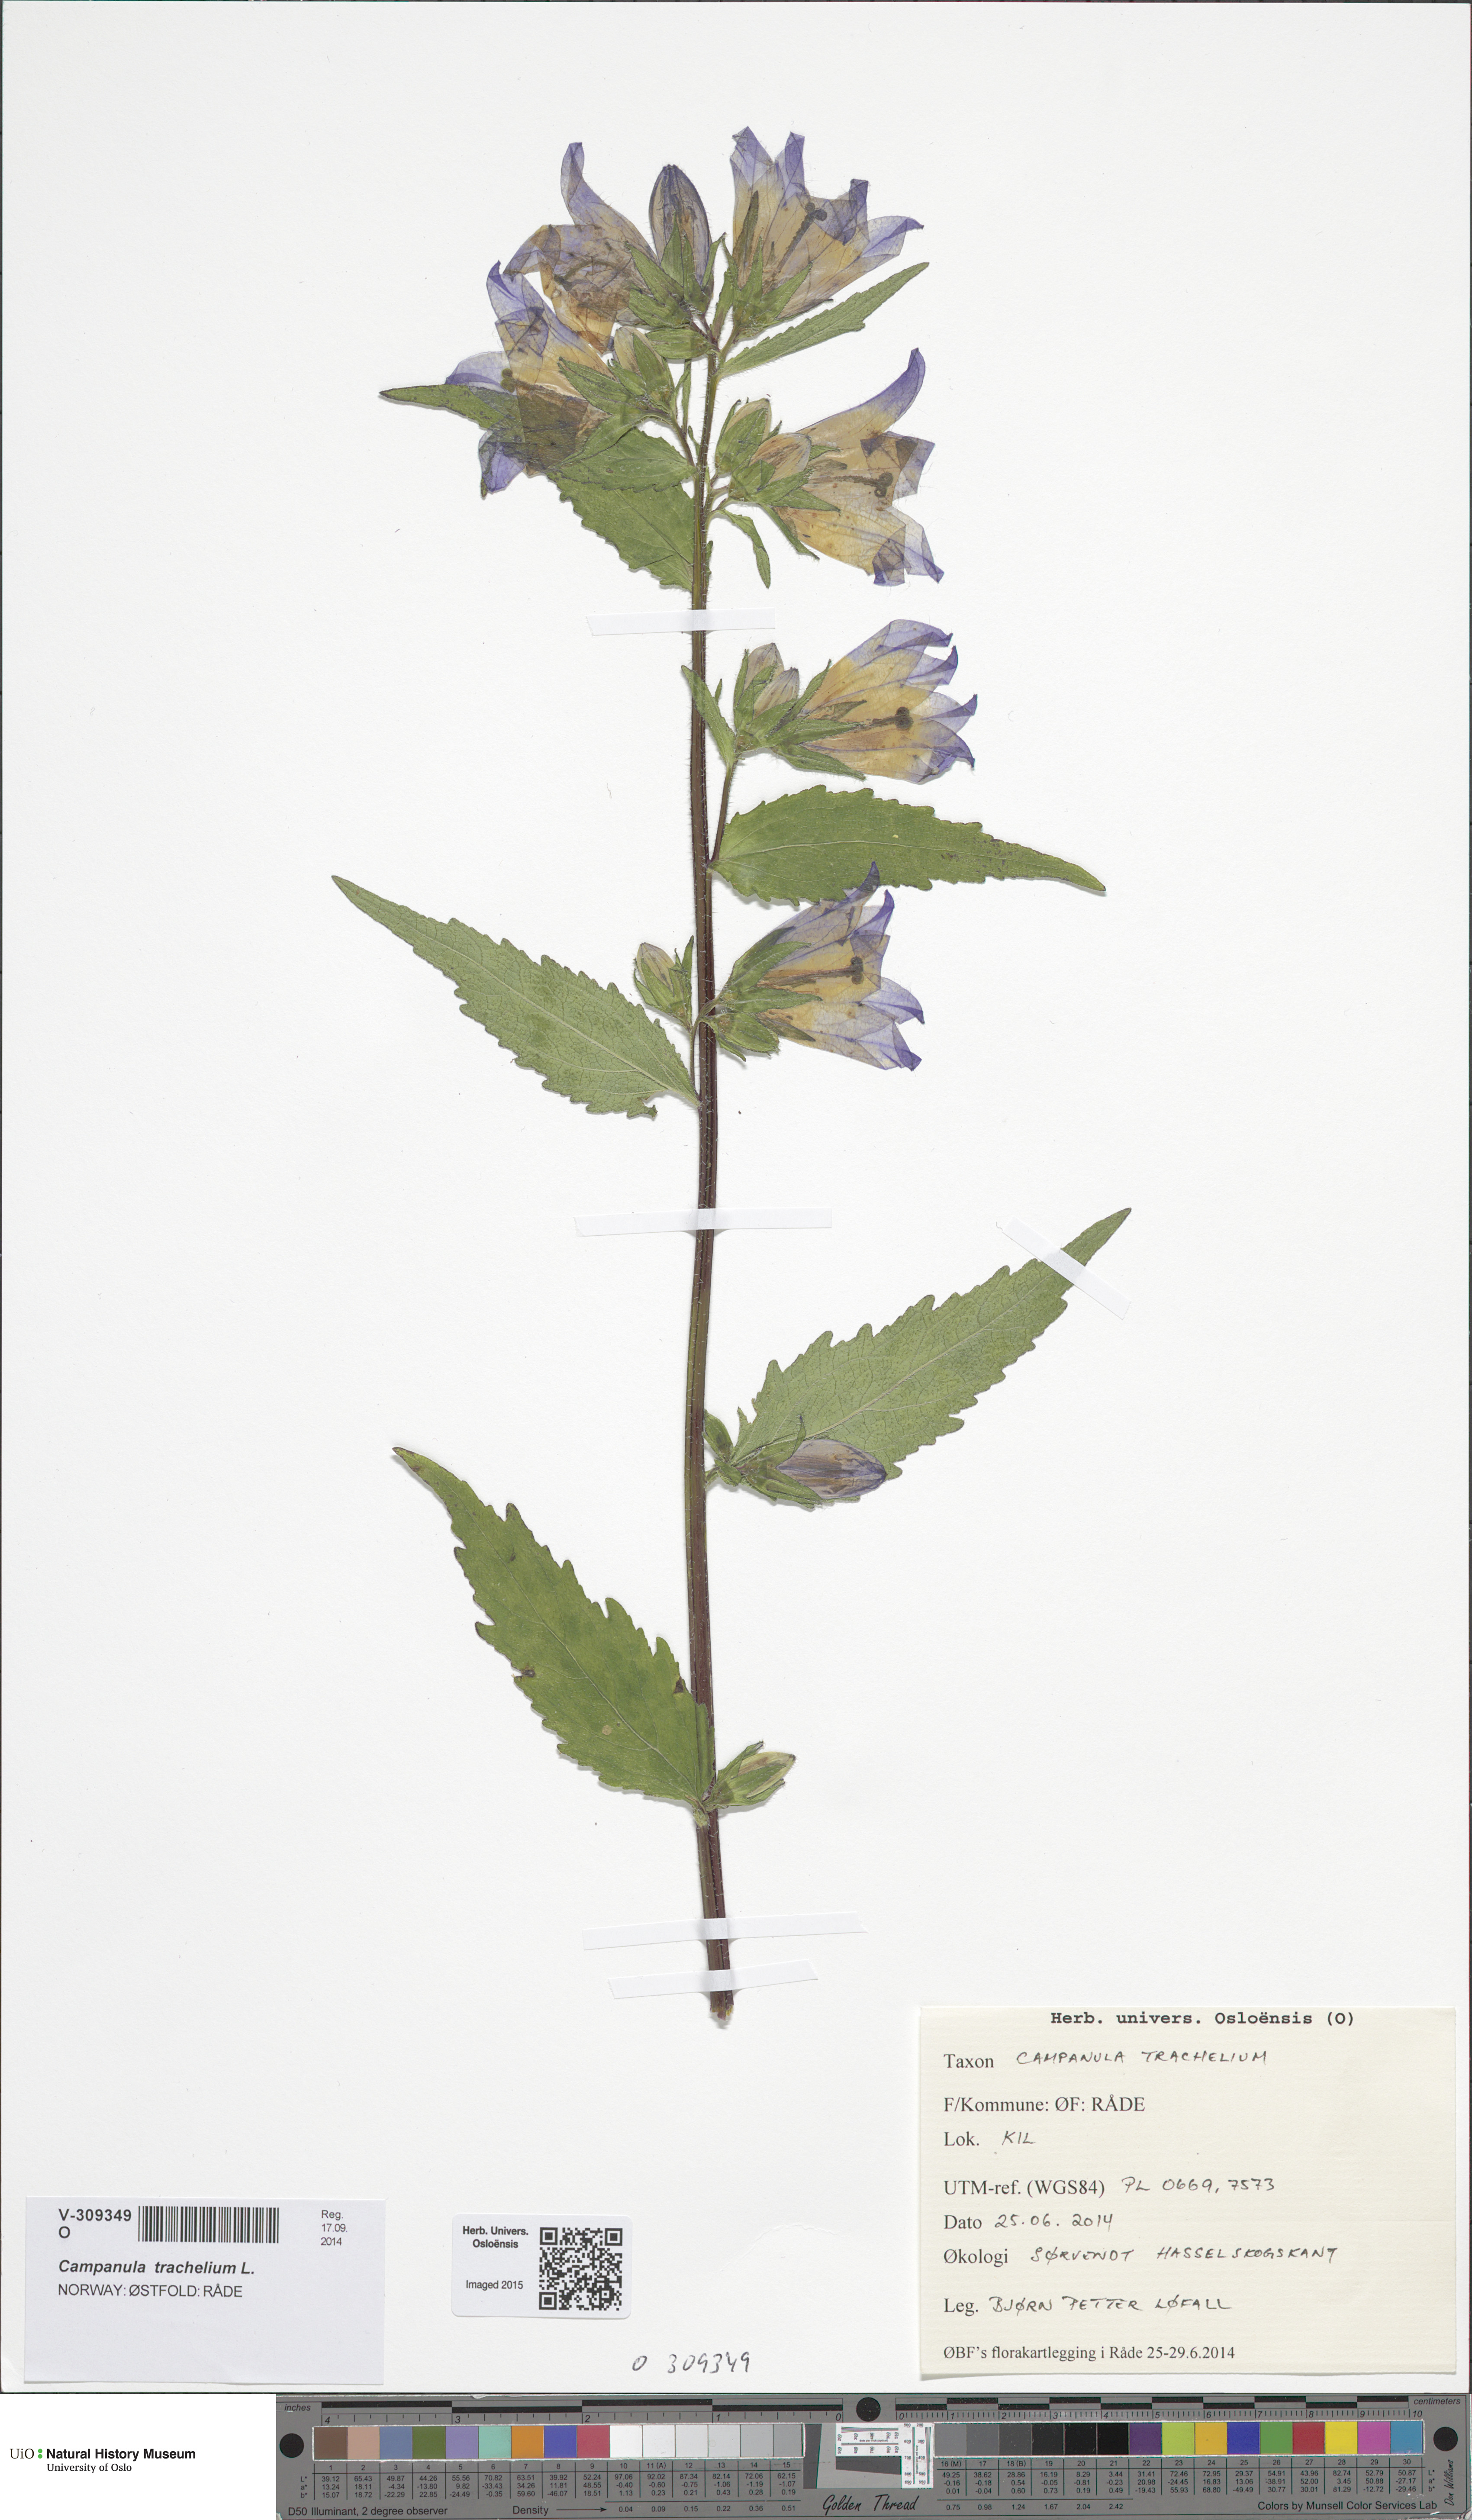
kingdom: Plantae
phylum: Tracheophyta
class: Magnoliopsida
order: Asterales
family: Campanulaceae
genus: Campanula
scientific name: Campanula trachelium
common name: Nettle-leaved bellflower
